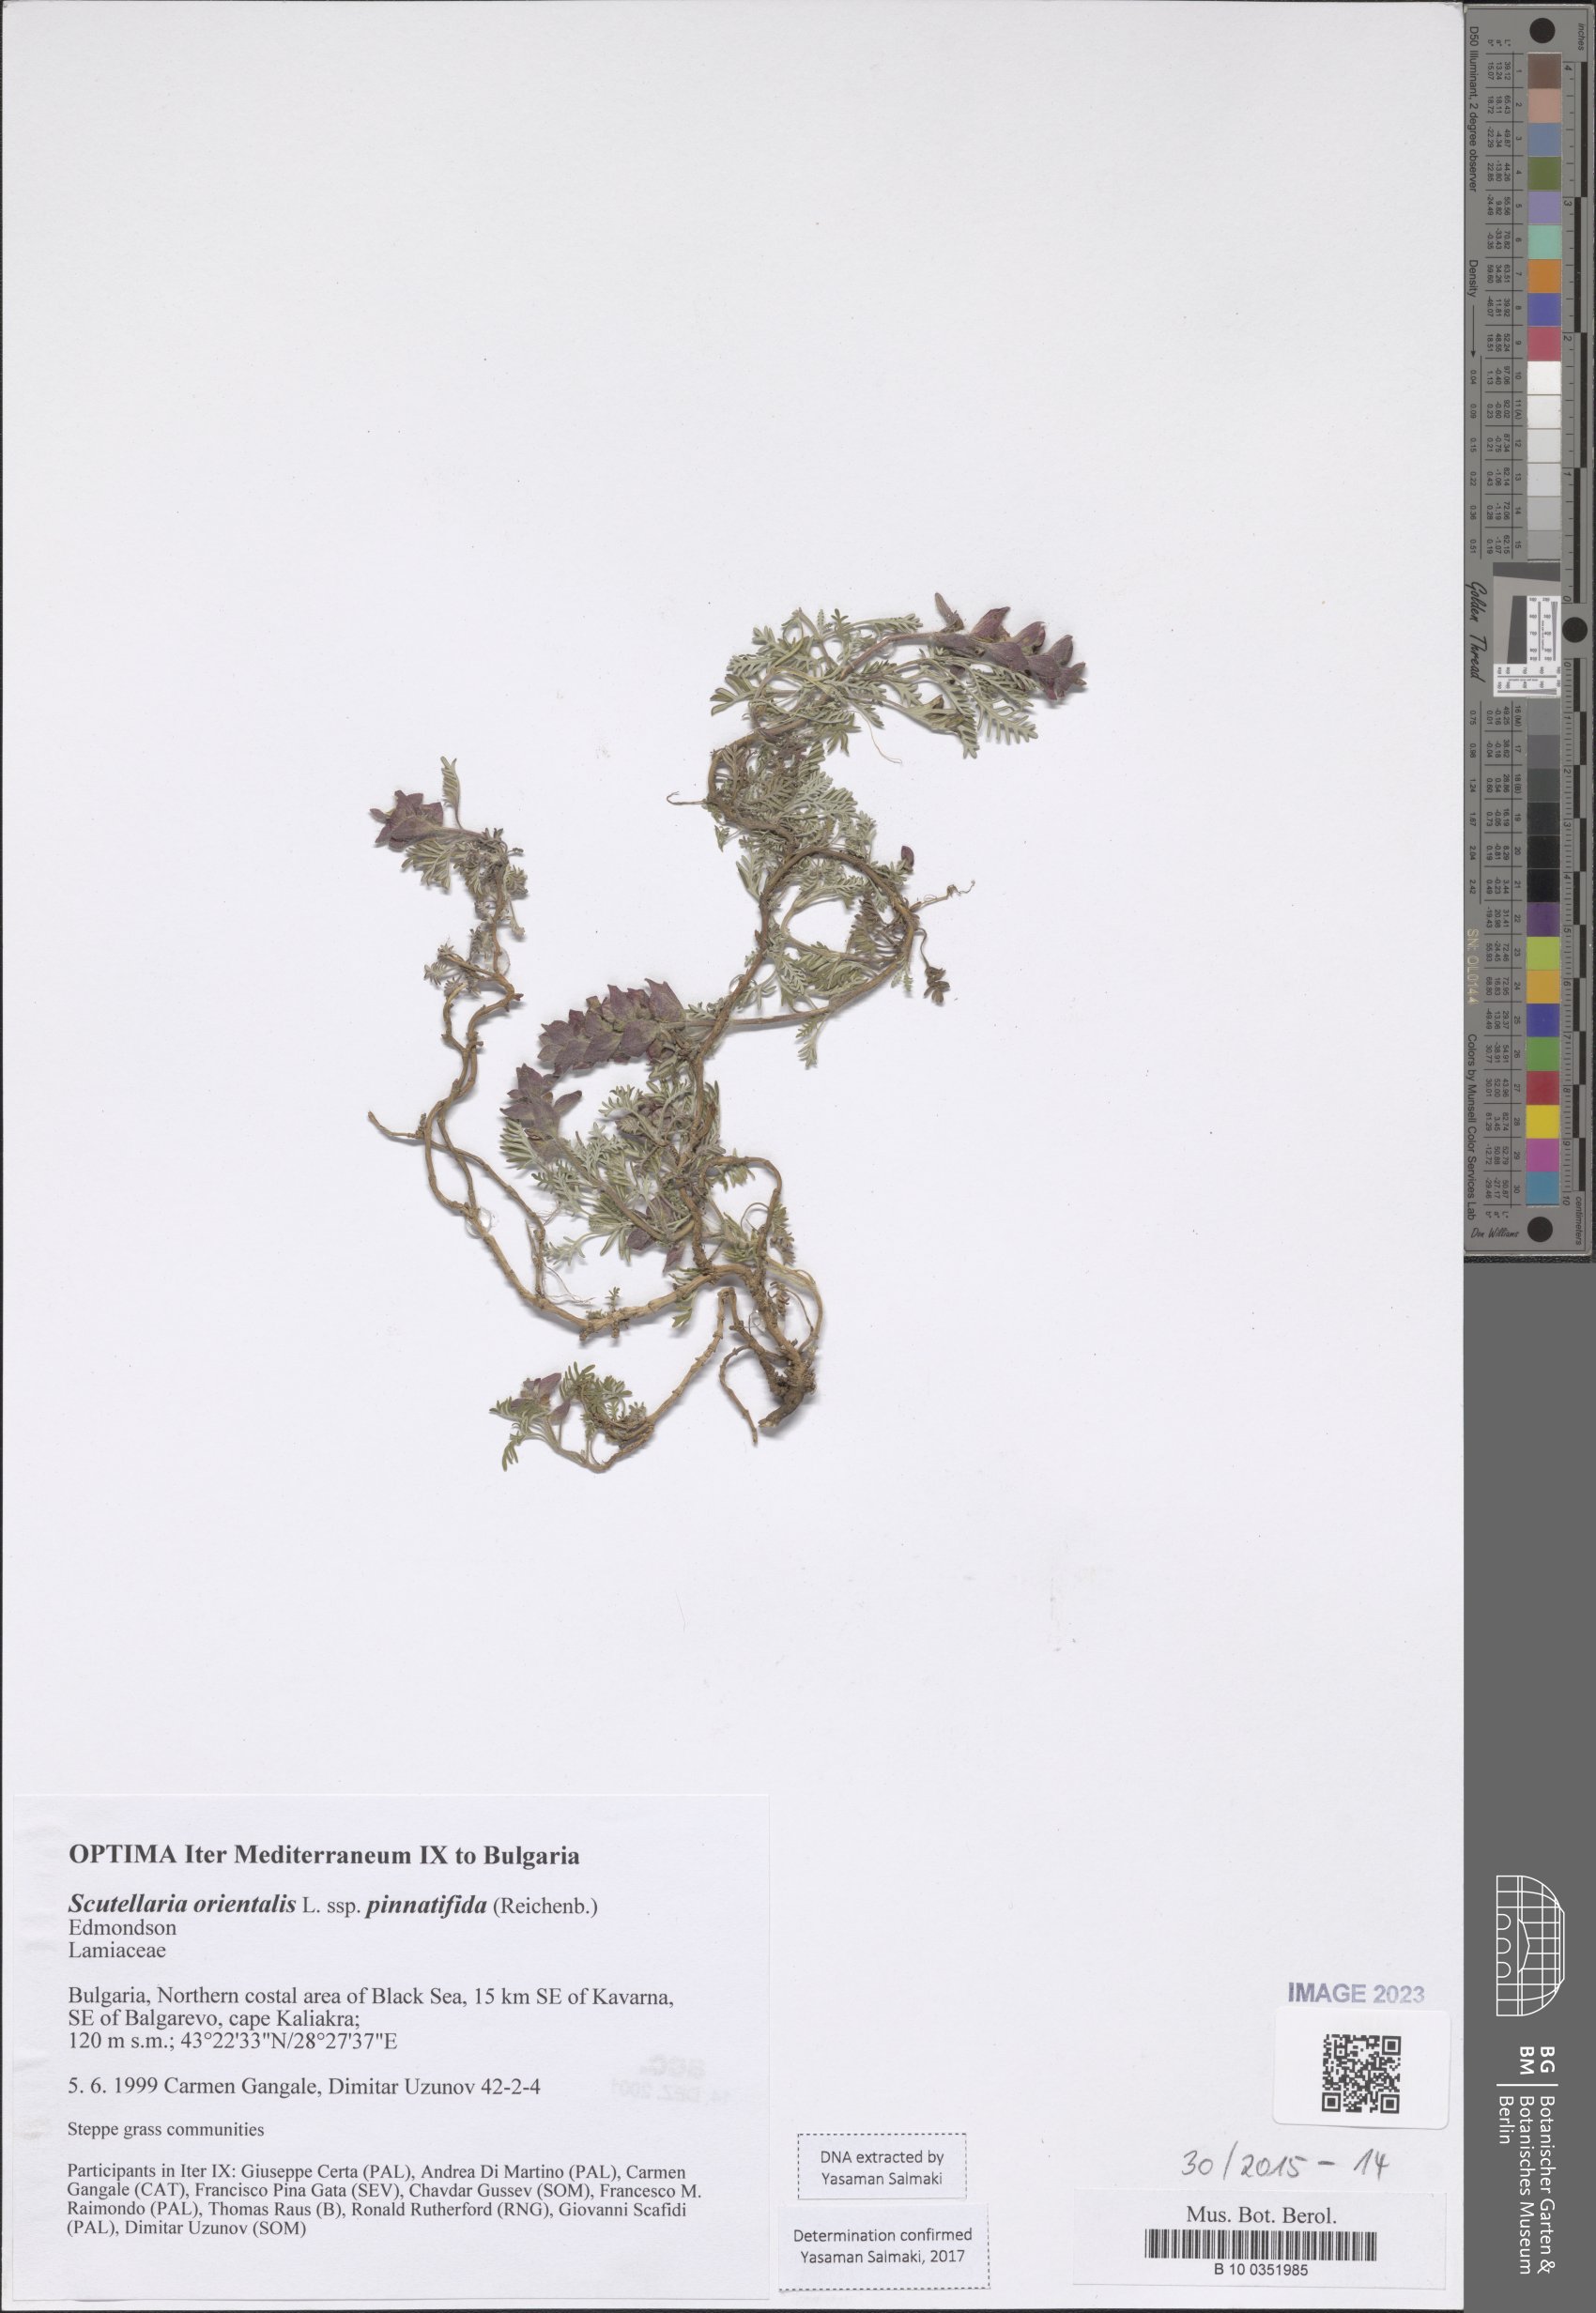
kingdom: Plantae
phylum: Tracheophyta
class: Magnoliopsida
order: Lamiales
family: Lamiaceae
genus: Scutellaria
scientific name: Scutellaria orientalis
